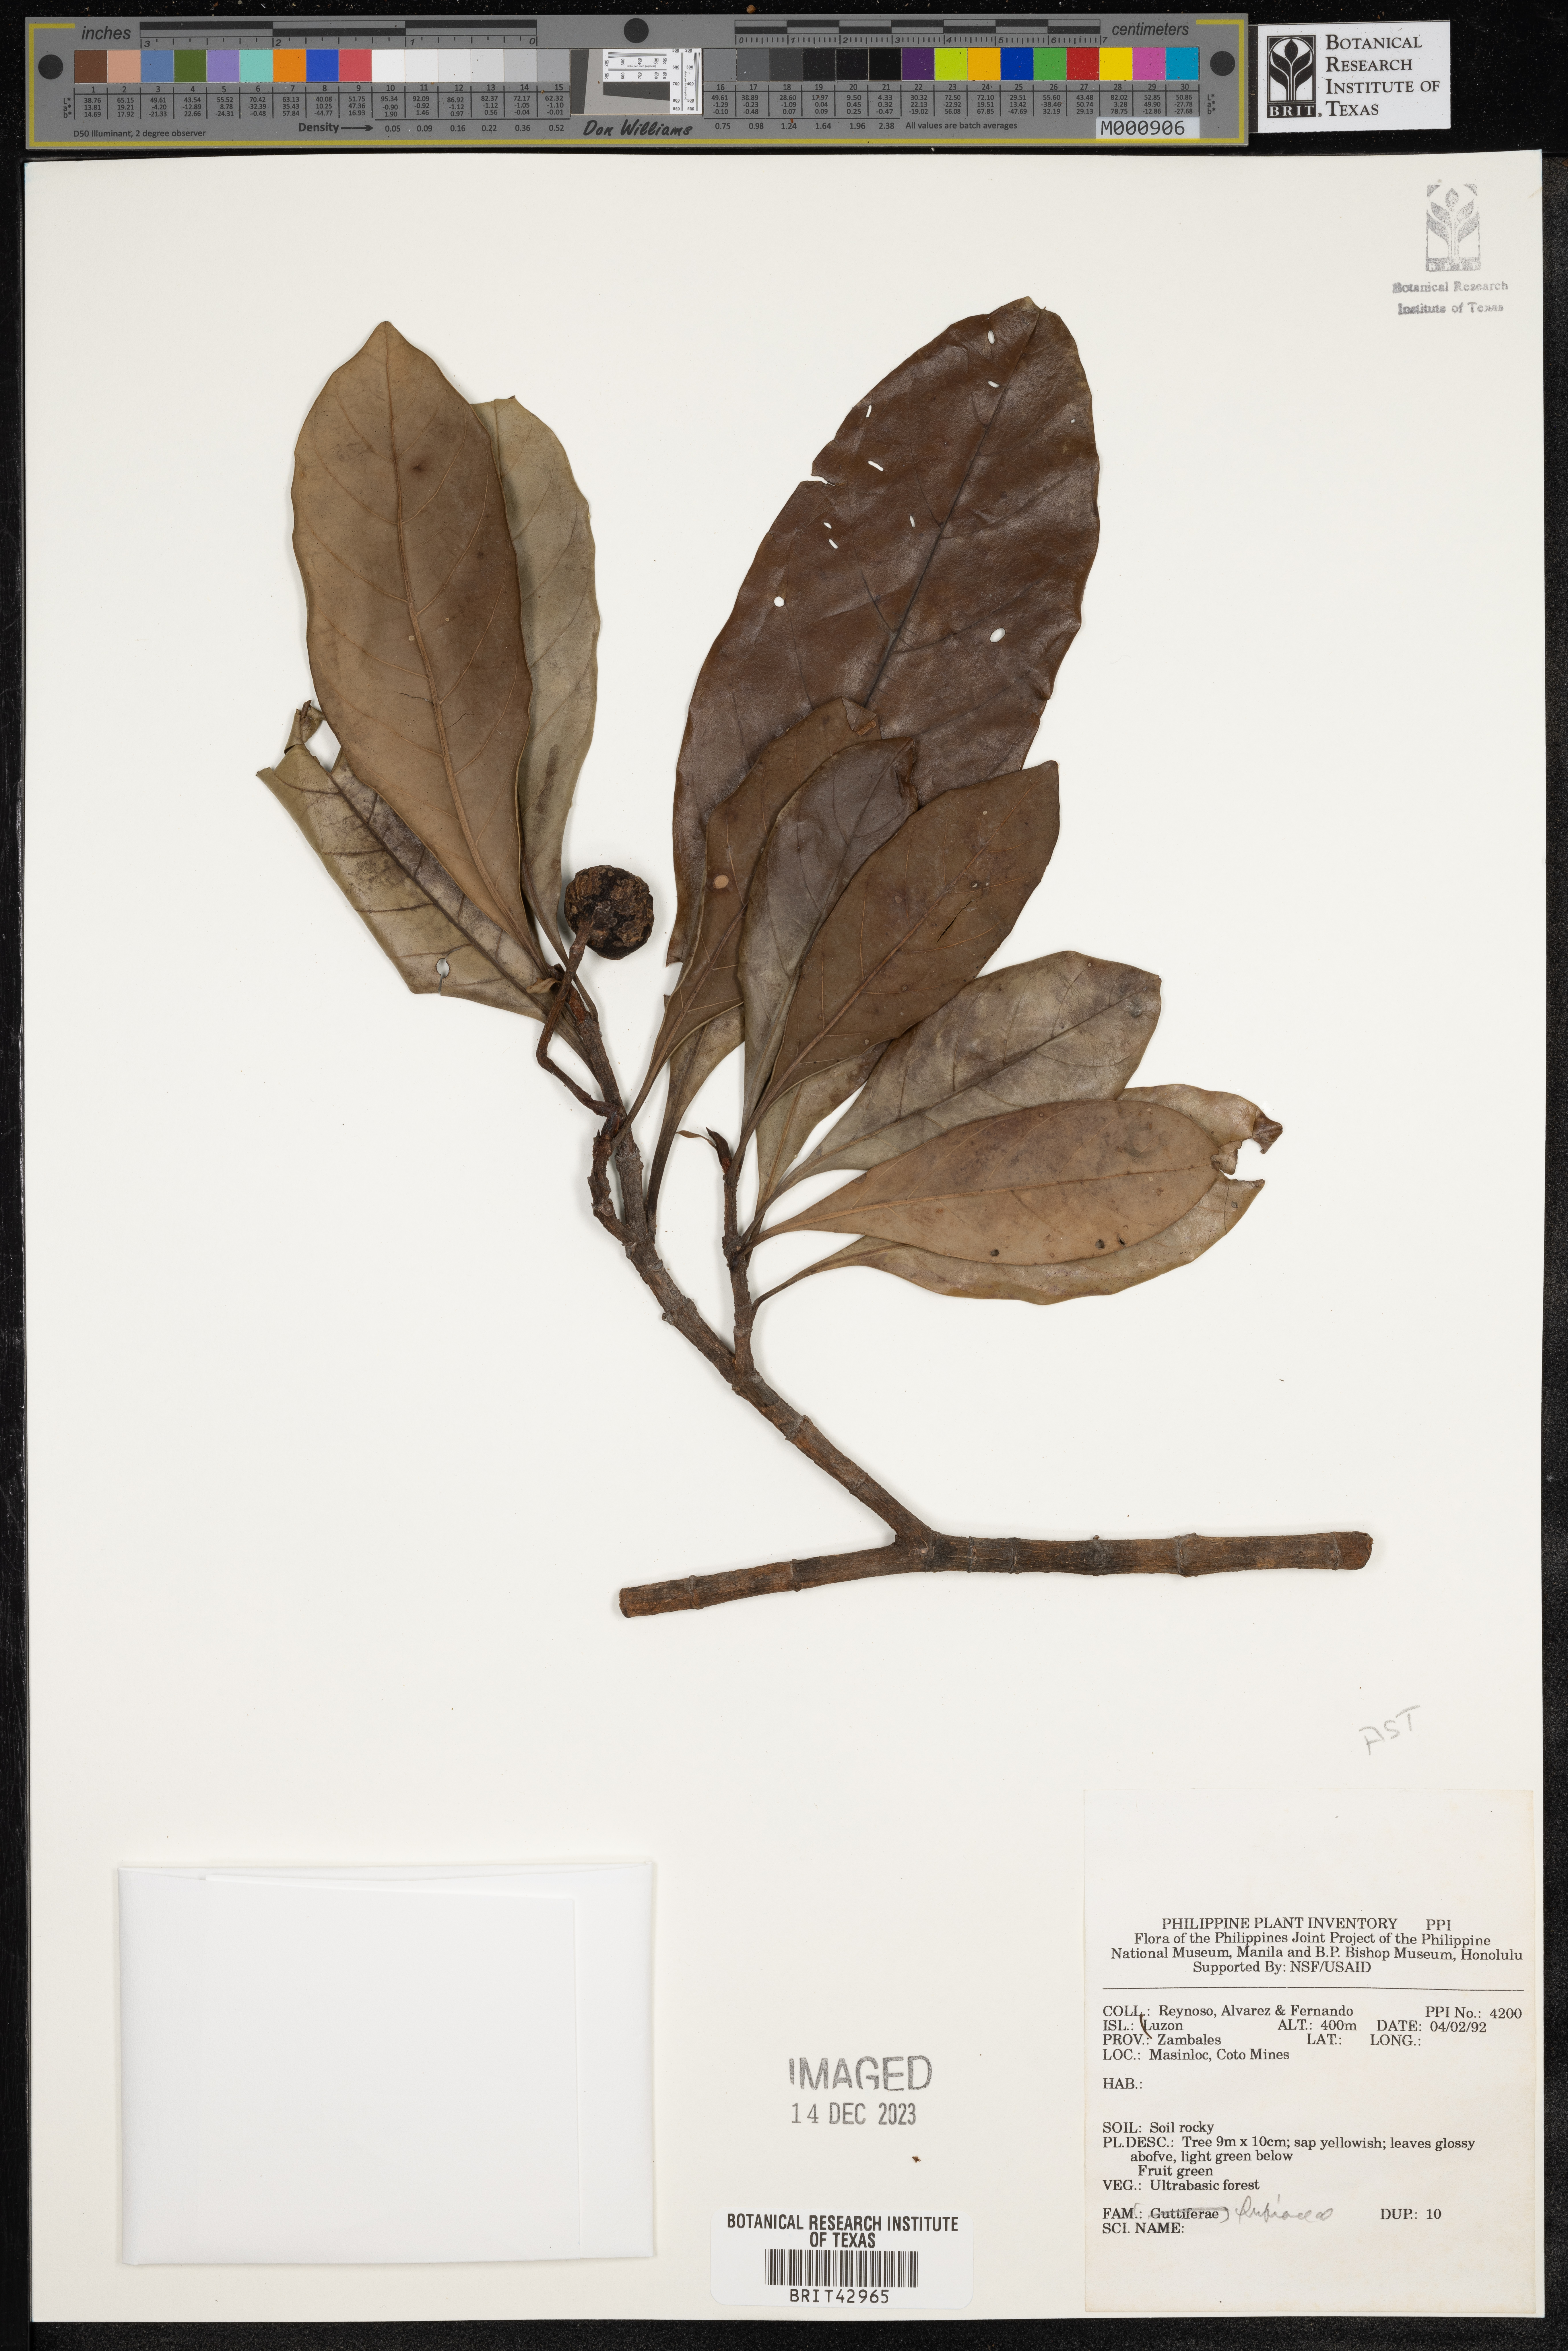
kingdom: Plantae
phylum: Tracheophyta
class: Magnoliopsida
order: Gentianales
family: Rubiaceae
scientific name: Rubiaceae
